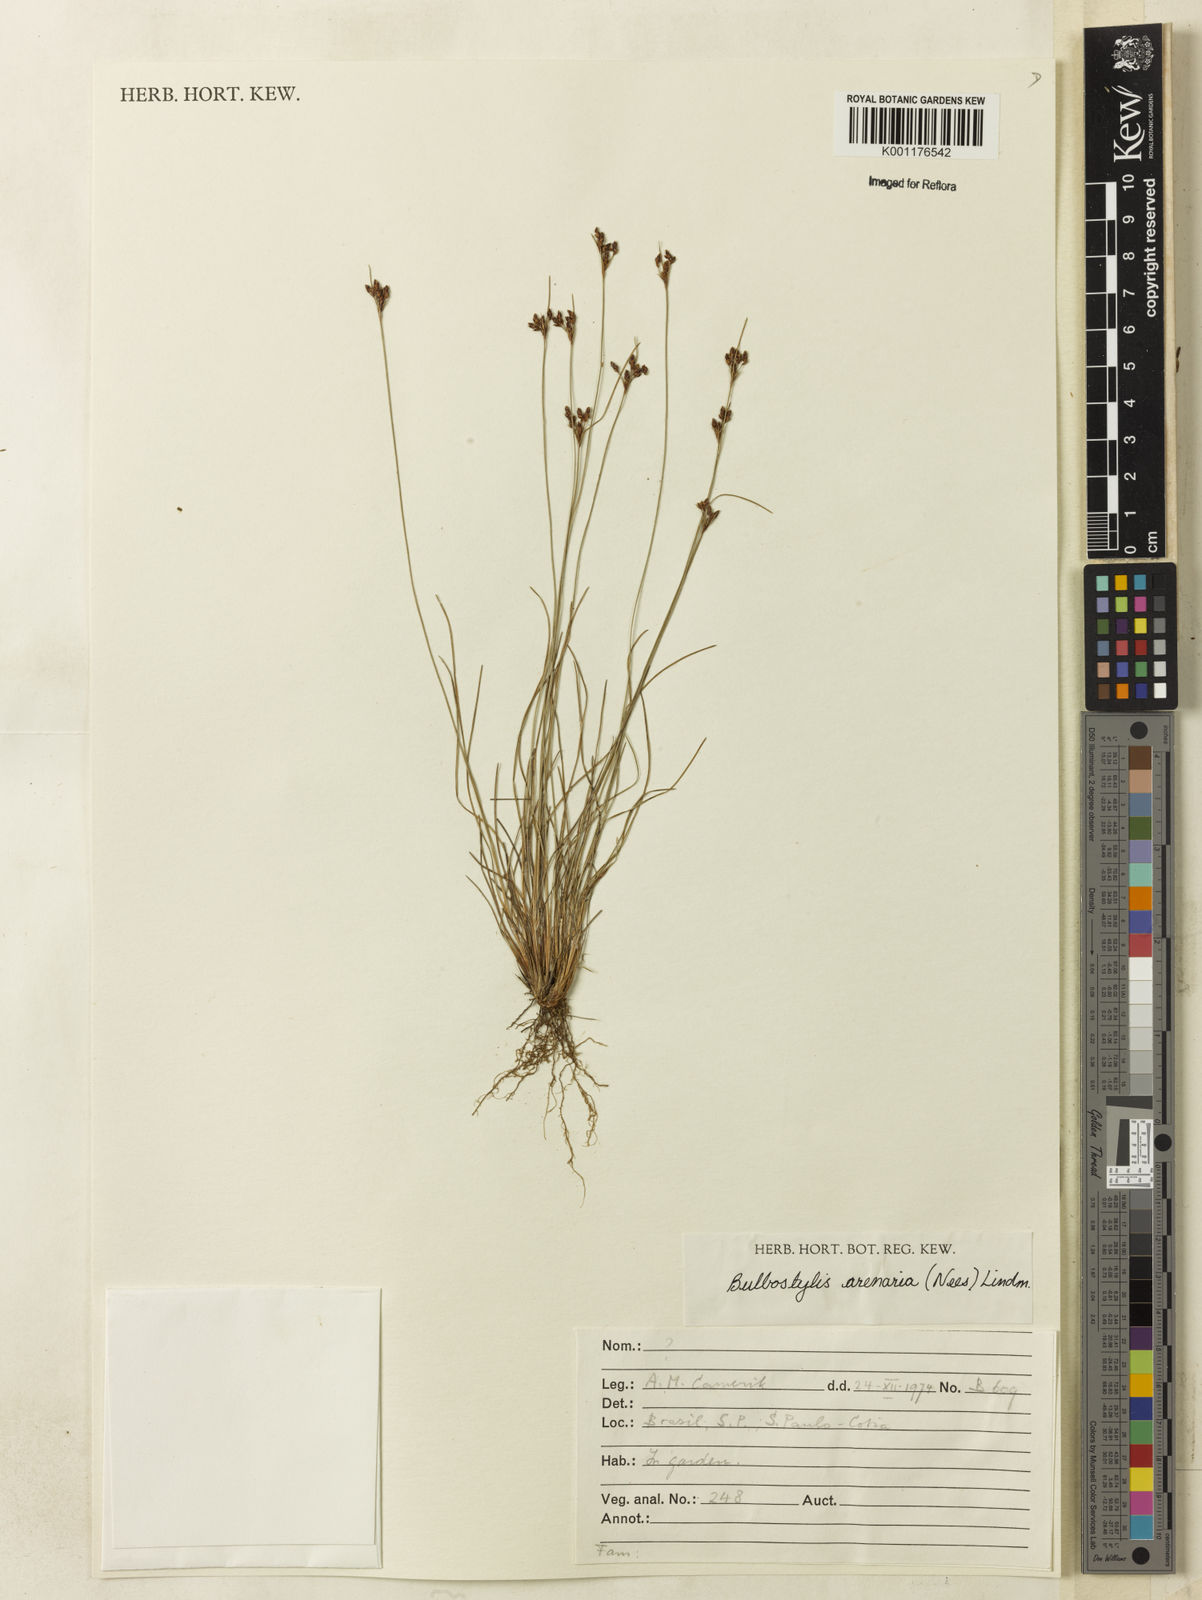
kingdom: Plantae
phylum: Tracheophyta
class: Liliopsida
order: Poales
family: Cyperaceae
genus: Bulbostylis
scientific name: Bulbostylis juncoides
